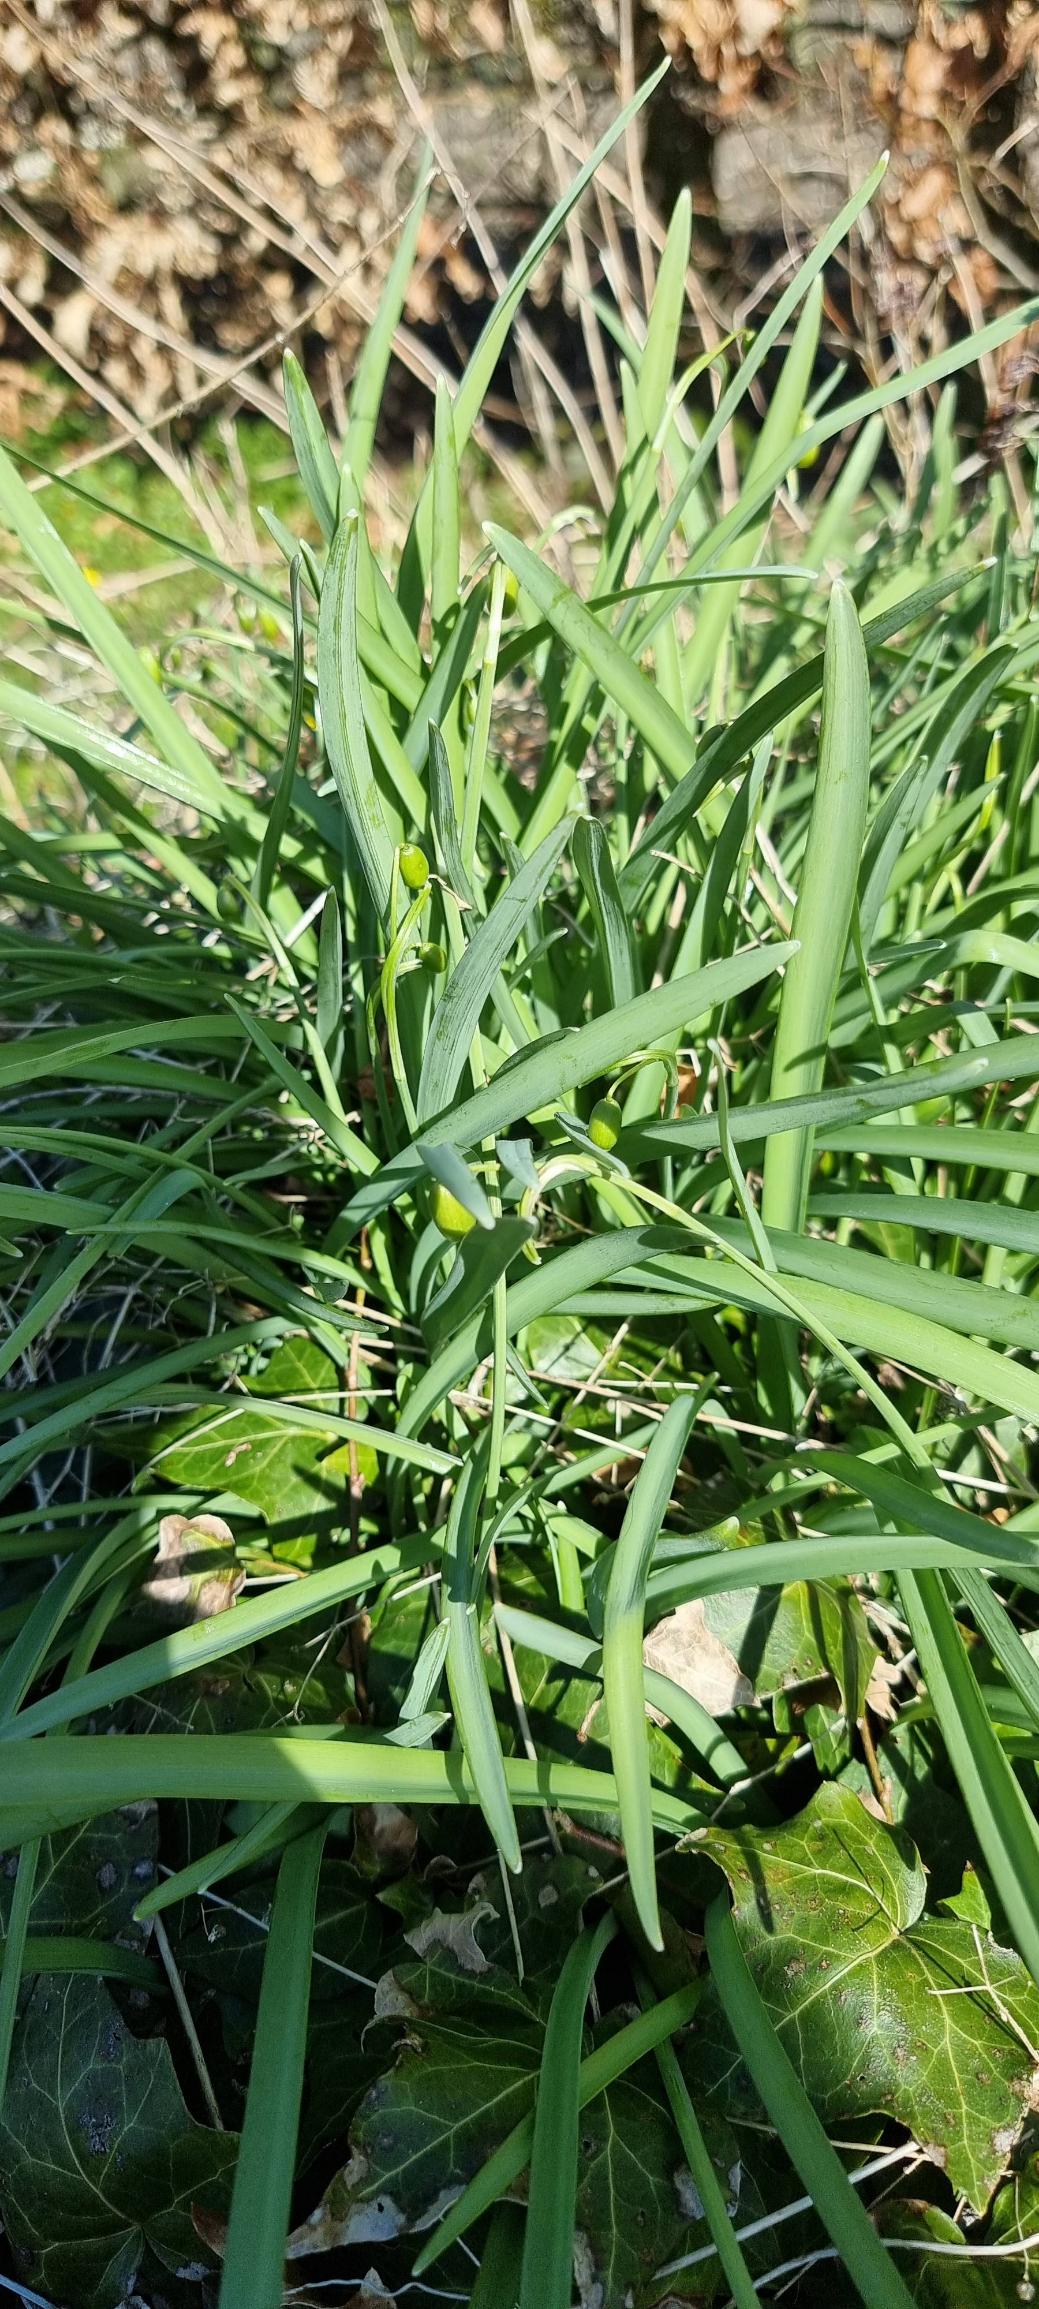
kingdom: Plantae
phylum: Tracheophyta
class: Liliopsida
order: Asparagales
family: Amaryllidaceae
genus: Galanthus
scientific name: Galanthus nivalis
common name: Vintergæk
